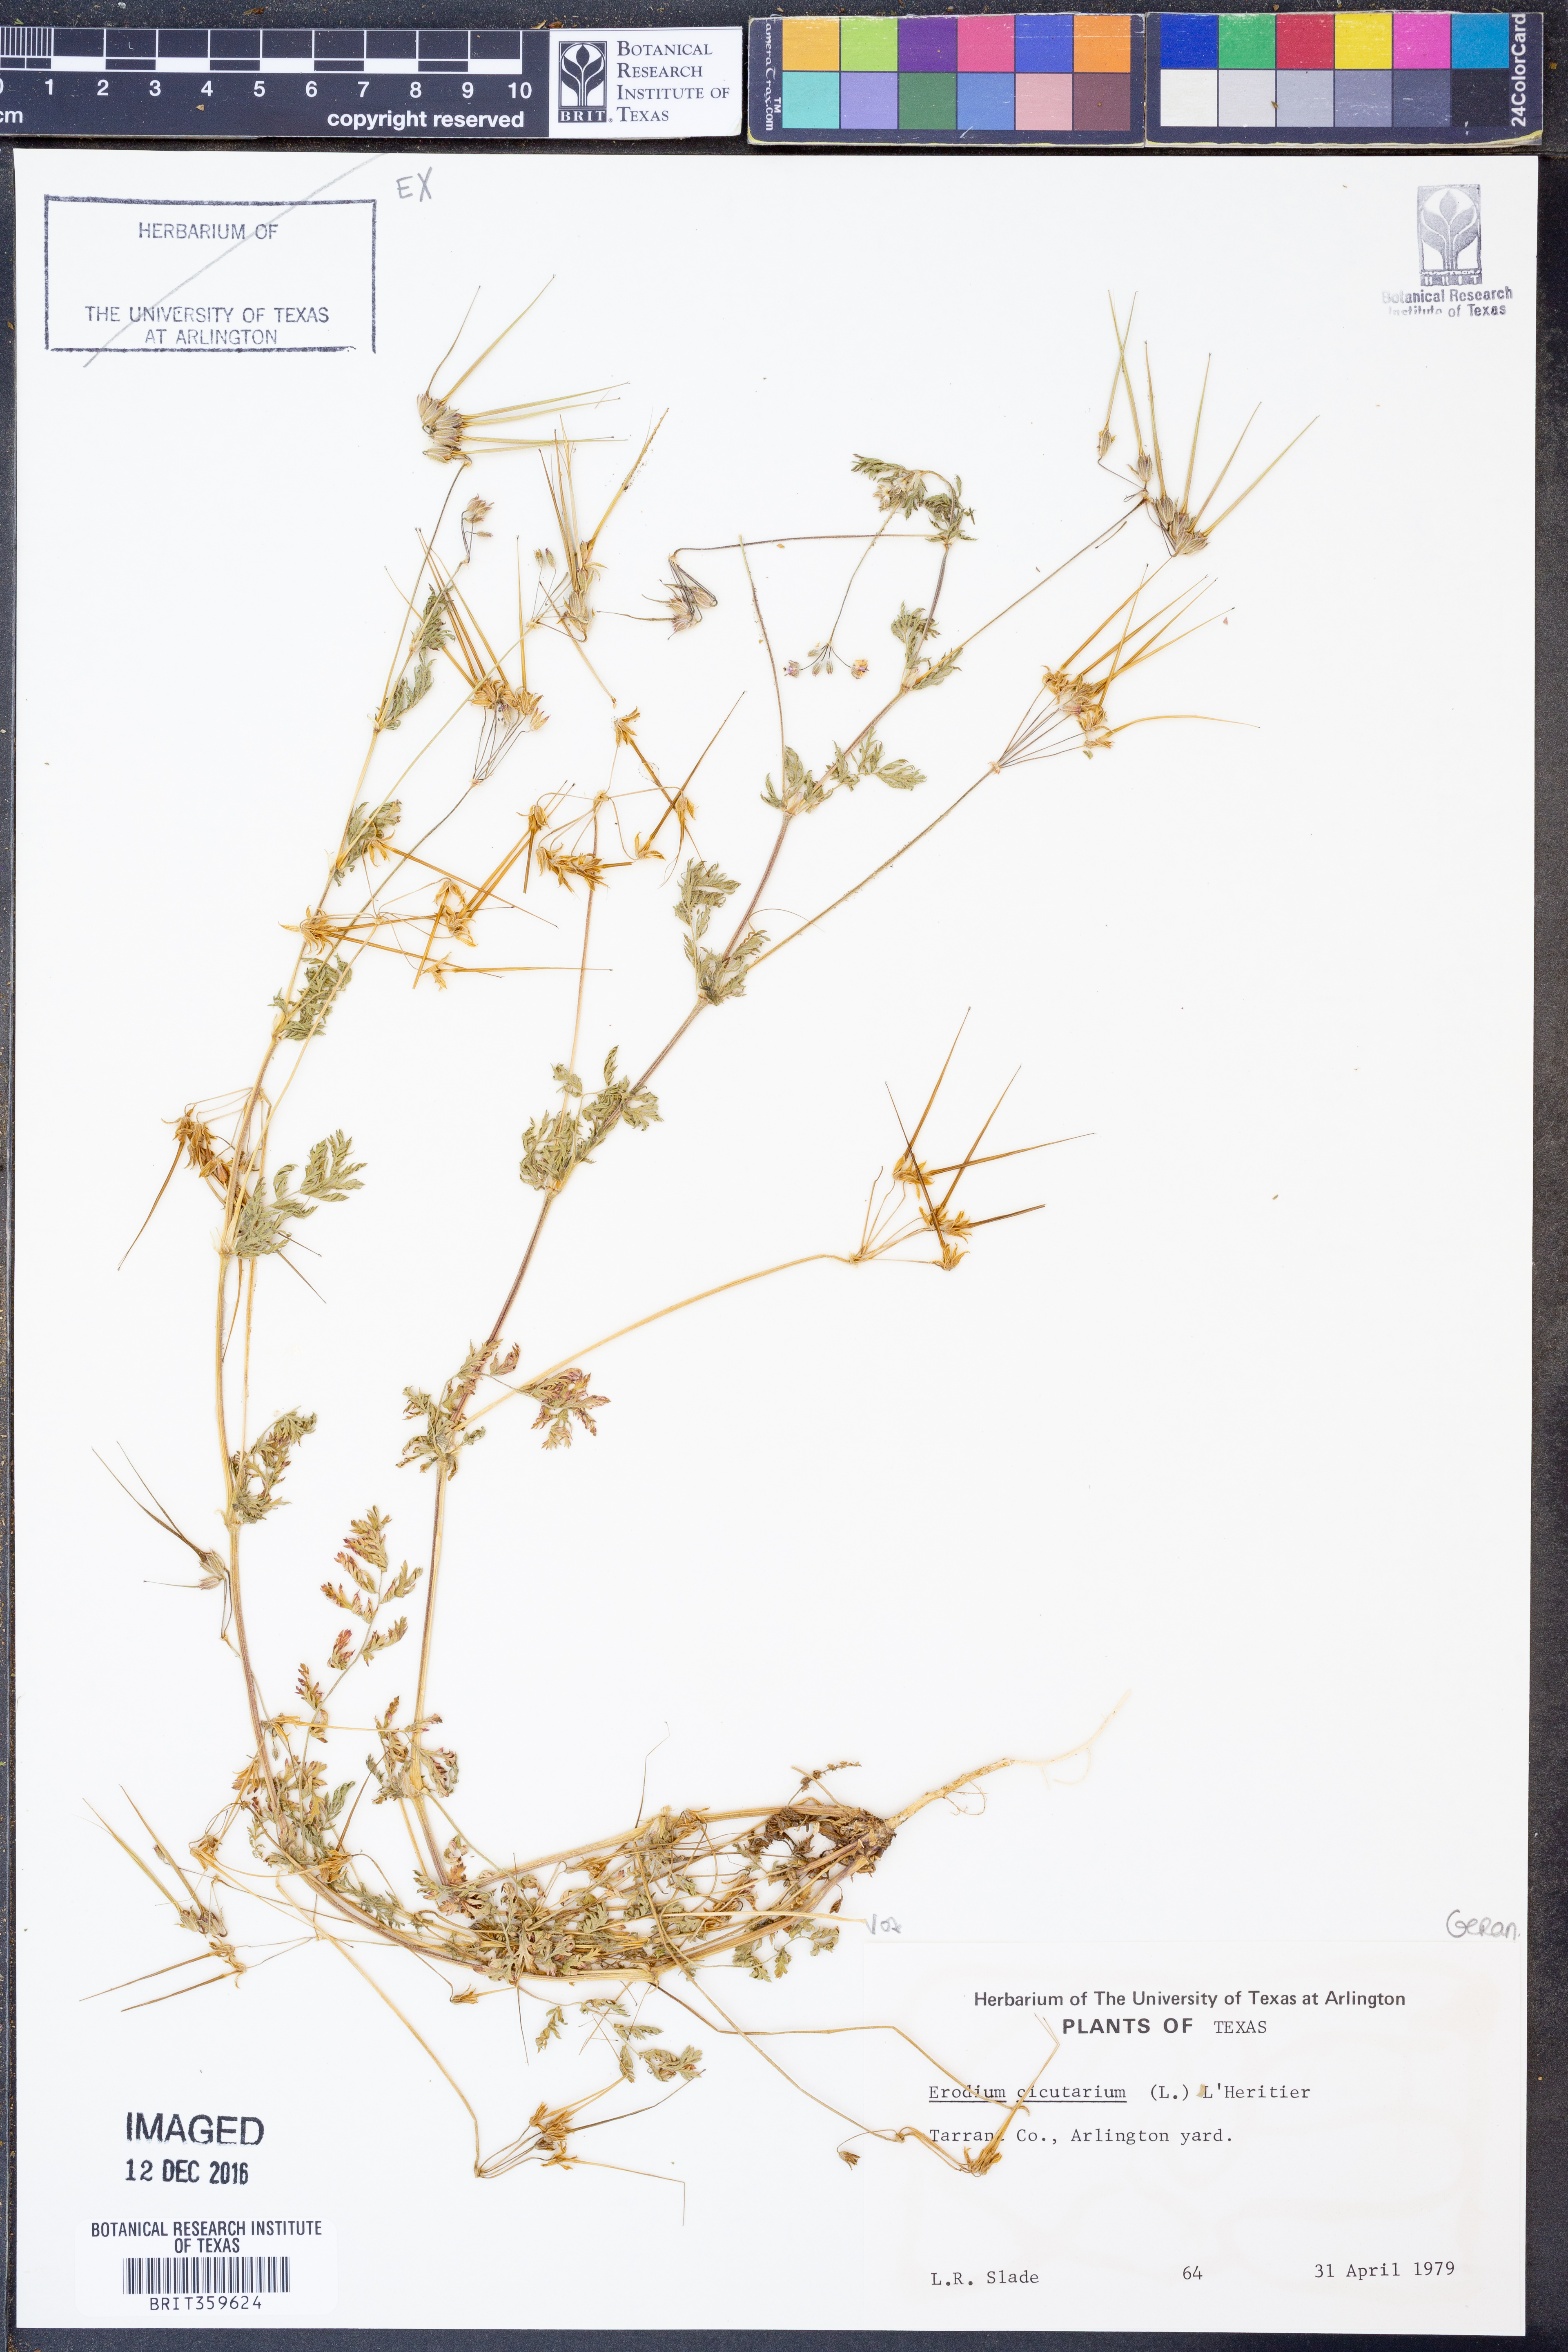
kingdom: Plantae
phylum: Tracheophyta
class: Magnoliopsida
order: Geraniales
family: Geraniaceae
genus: Erodium
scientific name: Erodium cicutarium
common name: Common stork's-bill
